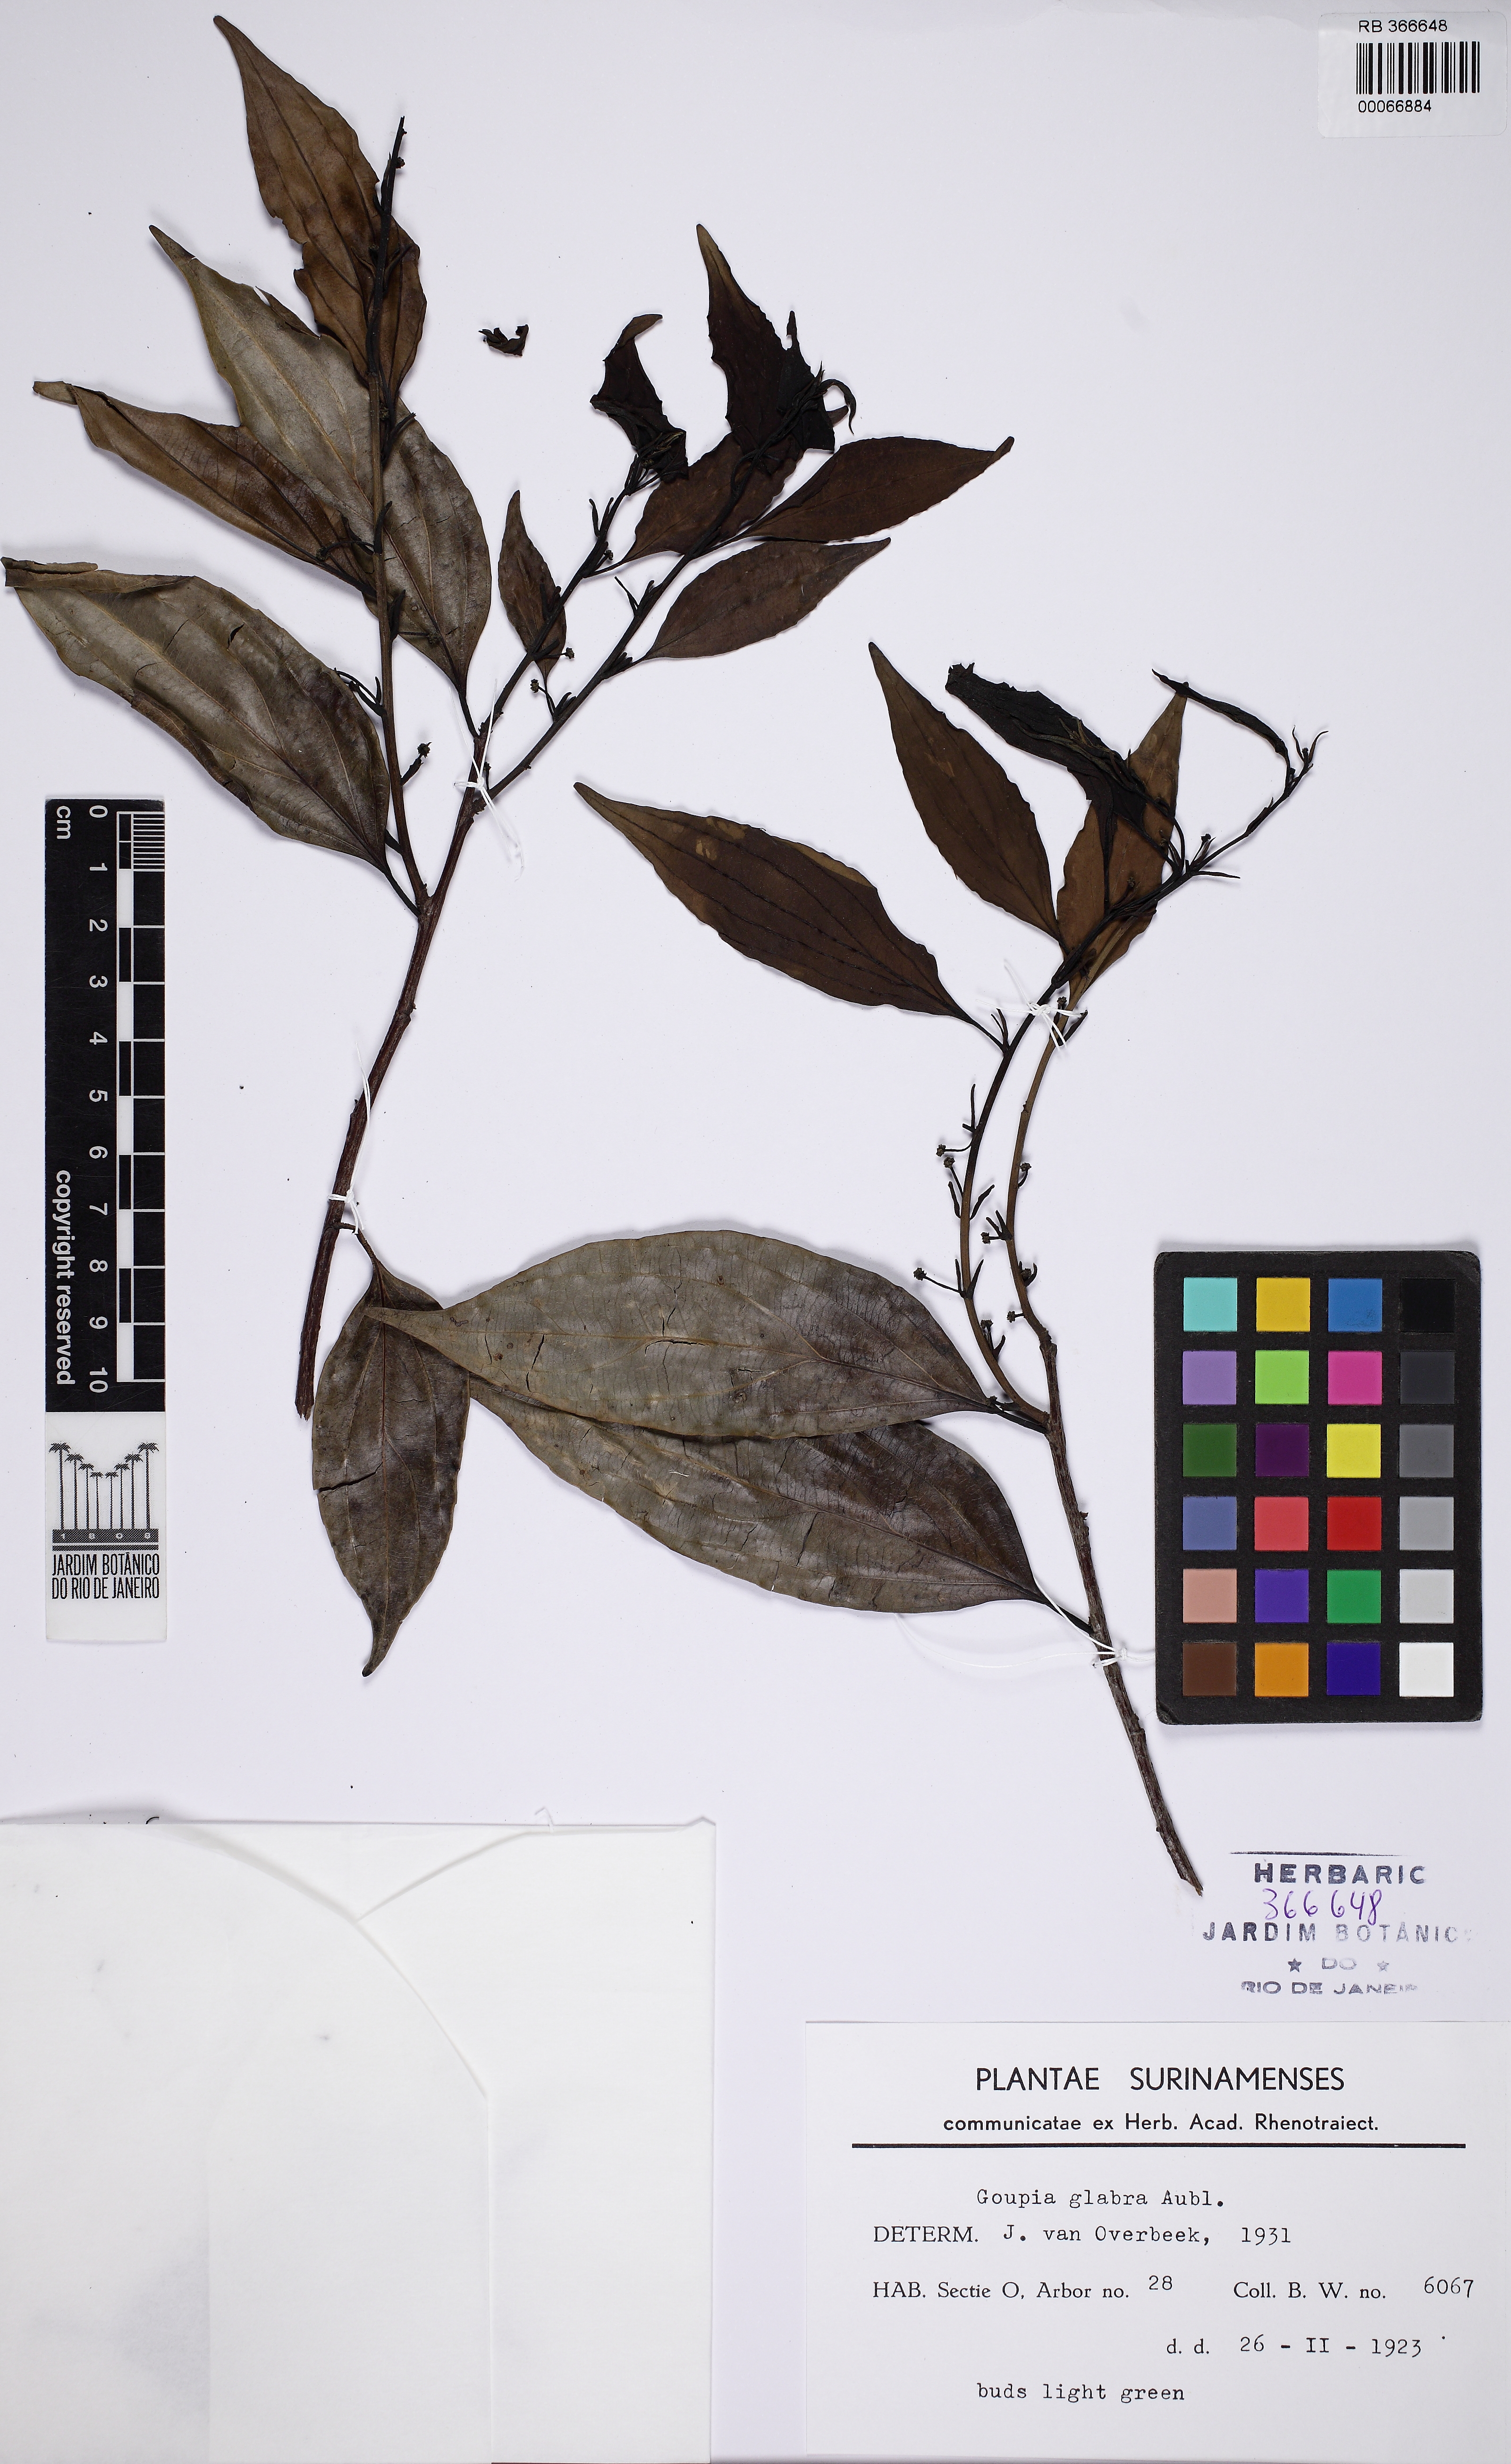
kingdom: Plantae
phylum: Tracheophyta
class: Magnoliopsida
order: Malpighiales
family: Goupiaceae
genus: Goupia
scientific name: Goupia glabra
